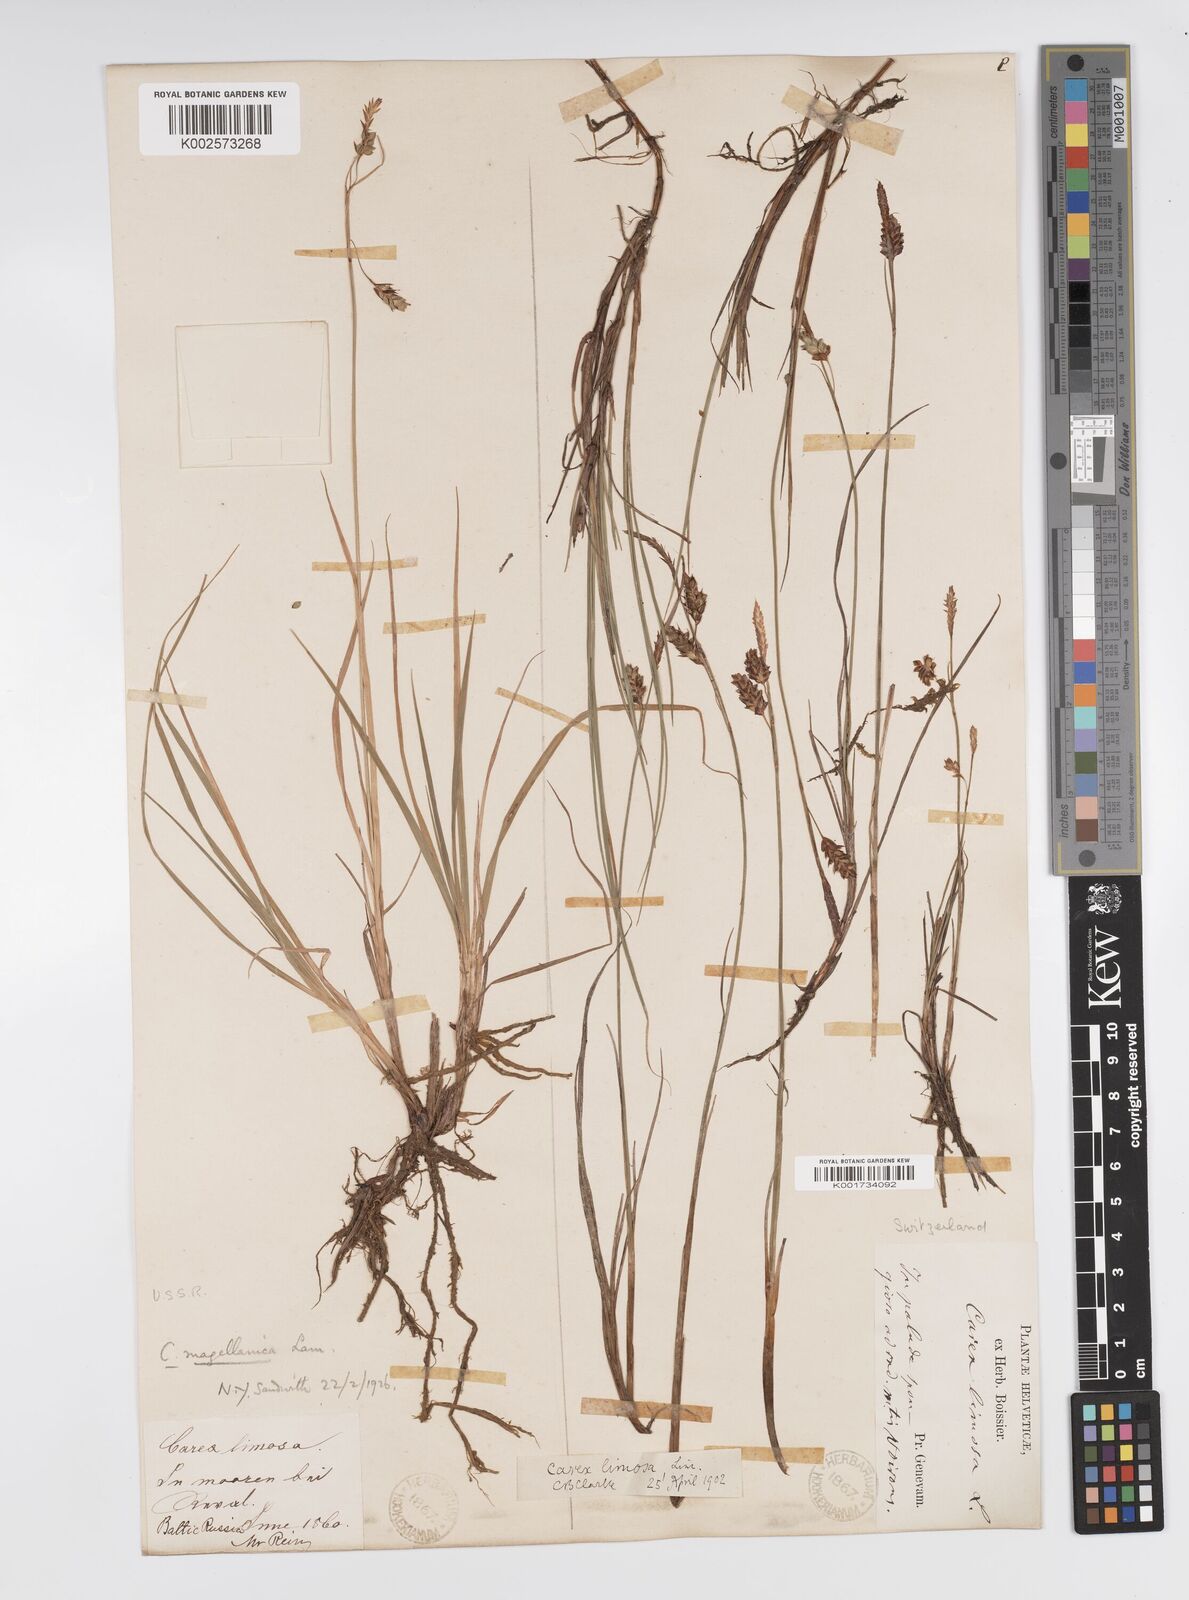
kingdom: Plantae
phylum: Tracheophyta
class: Liliopsida
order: Poales
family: Cyperaceae
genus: Carex
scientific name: Carex magellanica
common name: Bog sedge
